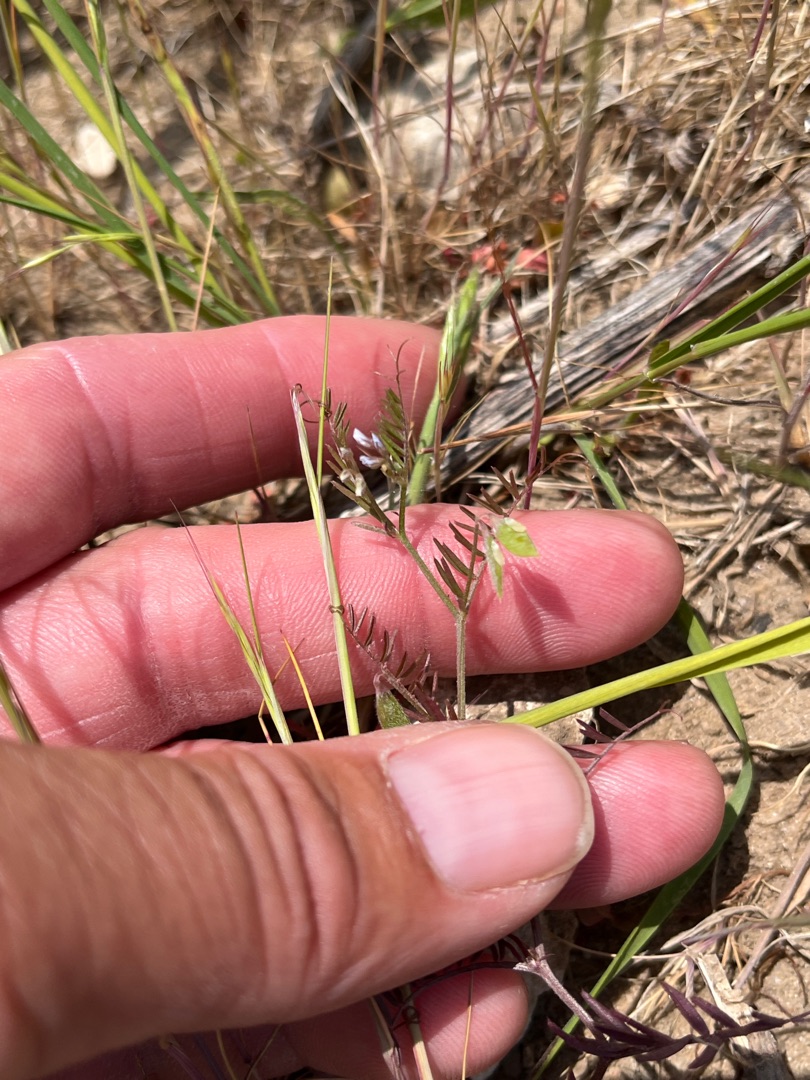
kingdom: Plantae
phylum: Tracheophyta
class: Magnoliopsida
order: Fabales
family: Fabaceae
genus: Vicia
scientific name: Vicia hirsuta
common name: Tofrøet vikke
